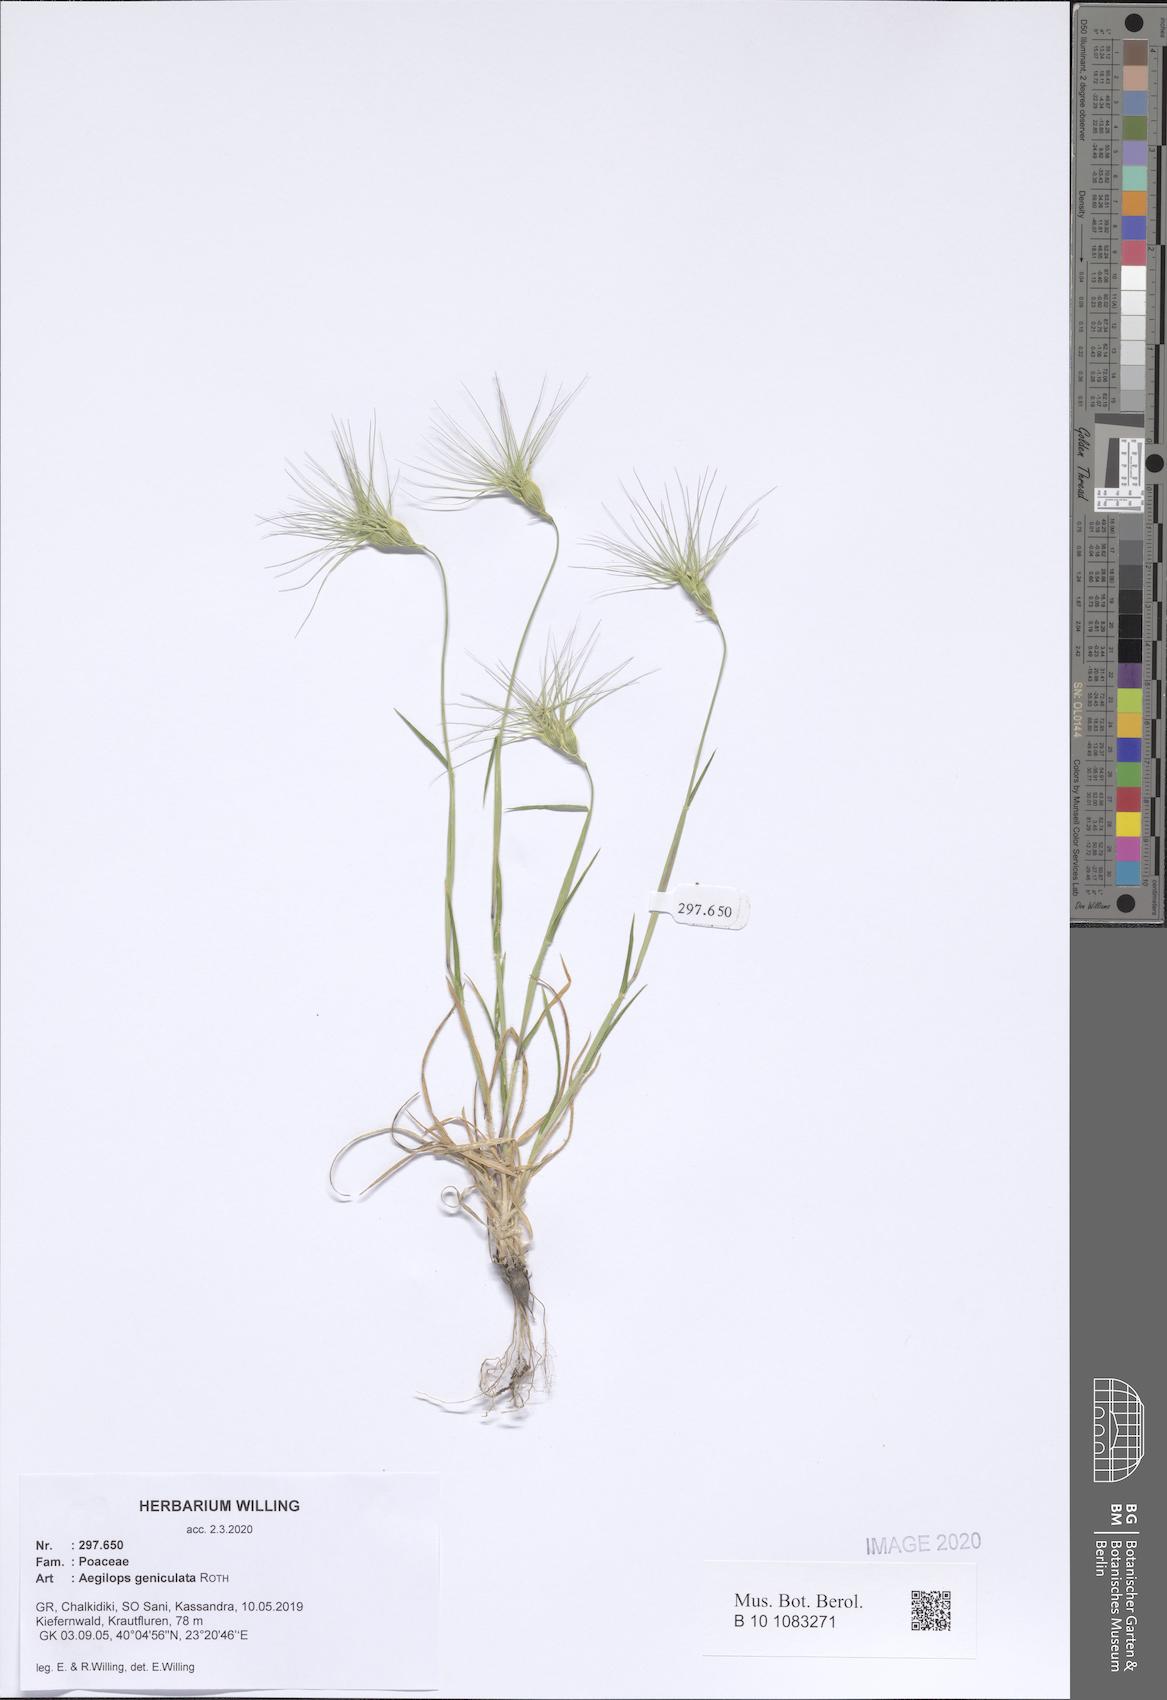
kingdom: Plantae
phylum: Tracheophyta
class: Liliopsida
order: Poales
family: Poaceae
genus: Aegilops
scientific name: Aegilops geniculata
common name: Ovate goat grass
